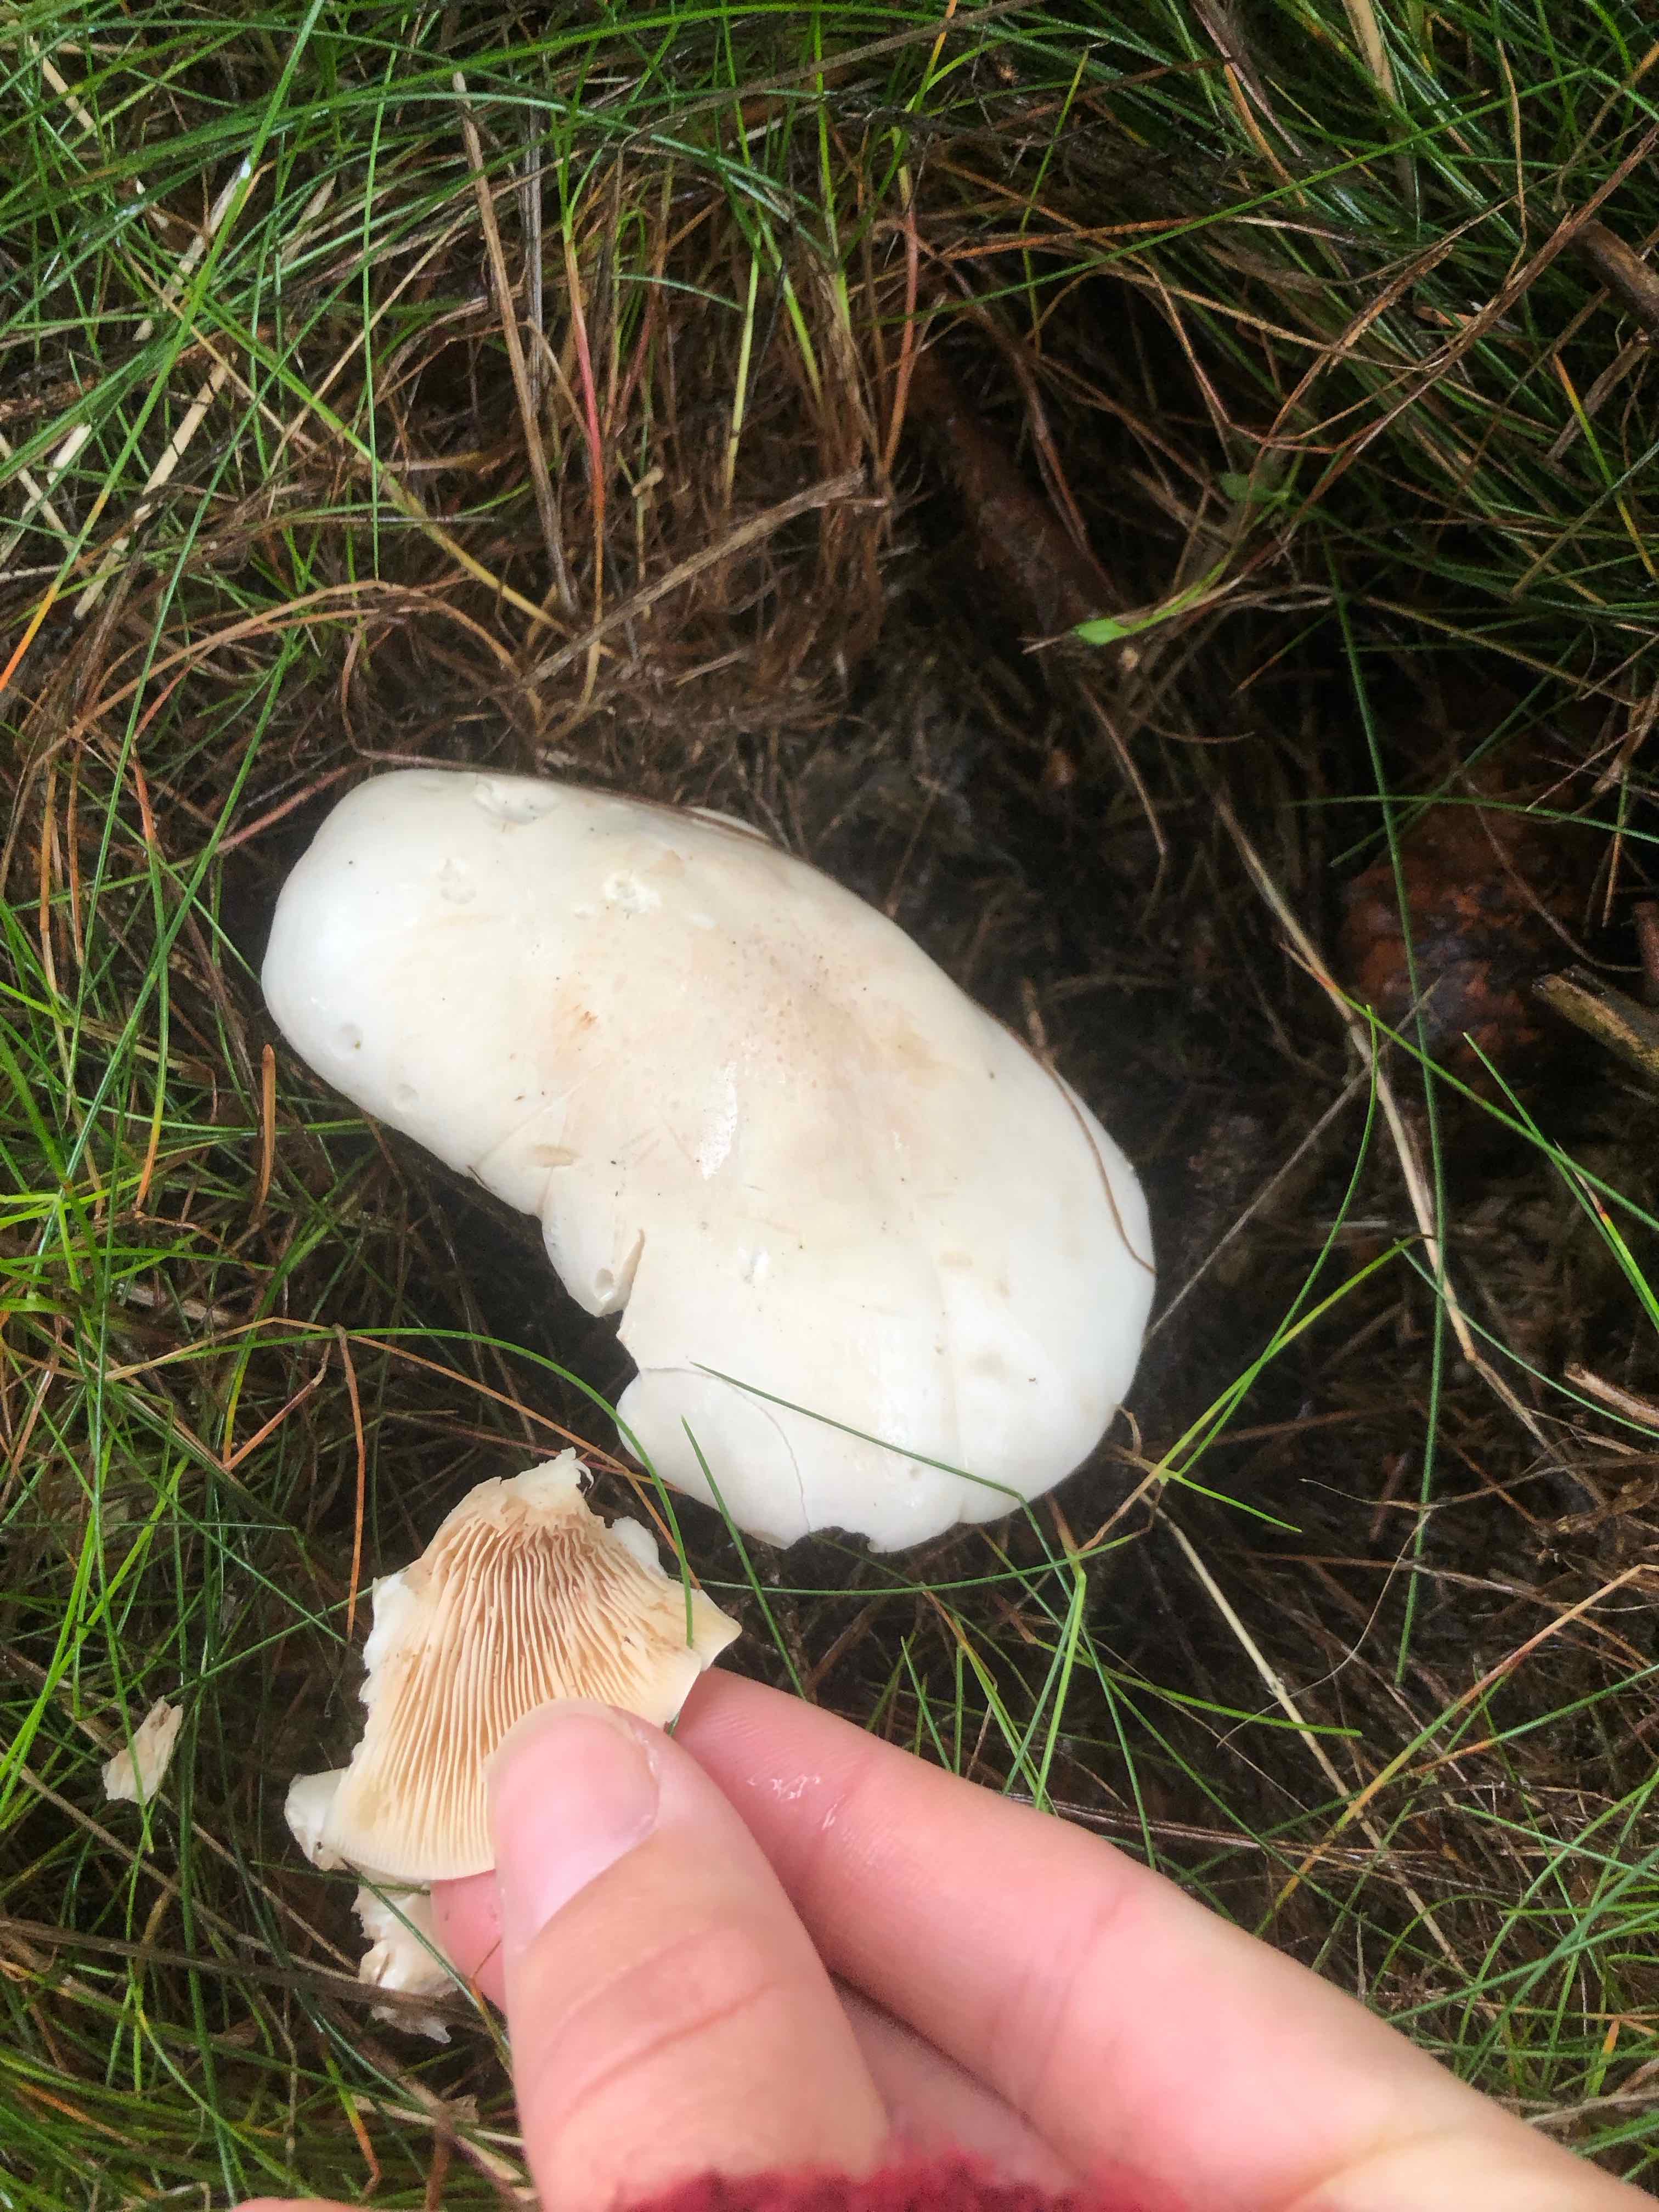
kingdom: Fungi
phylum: Basidiomycota
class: Agaricomycetes
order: Agaricales
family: Entolomataceae
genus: Clitopilus
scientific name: Clitopilus prunulus
